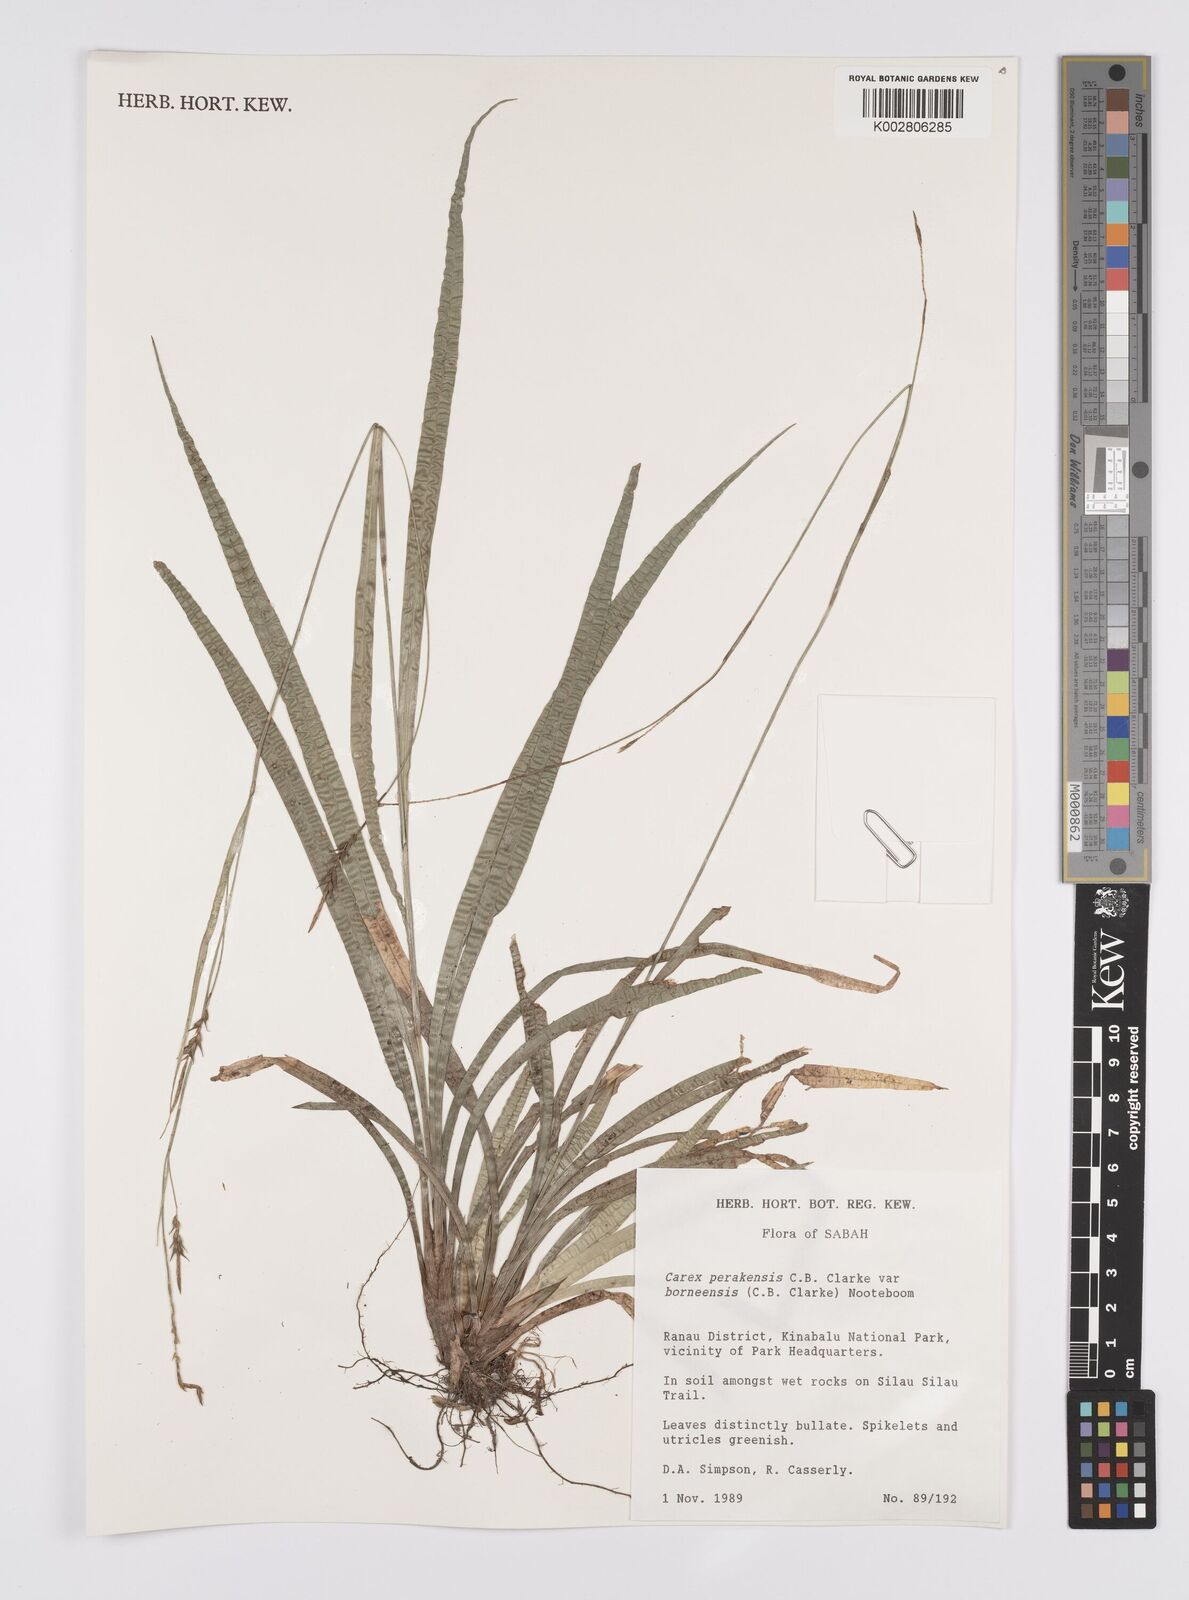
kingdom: Plantae
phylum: Tracheophyta
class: Liliopsida
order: Poales
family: Cyperaceae
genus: Carex
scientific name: Carex perakensis
